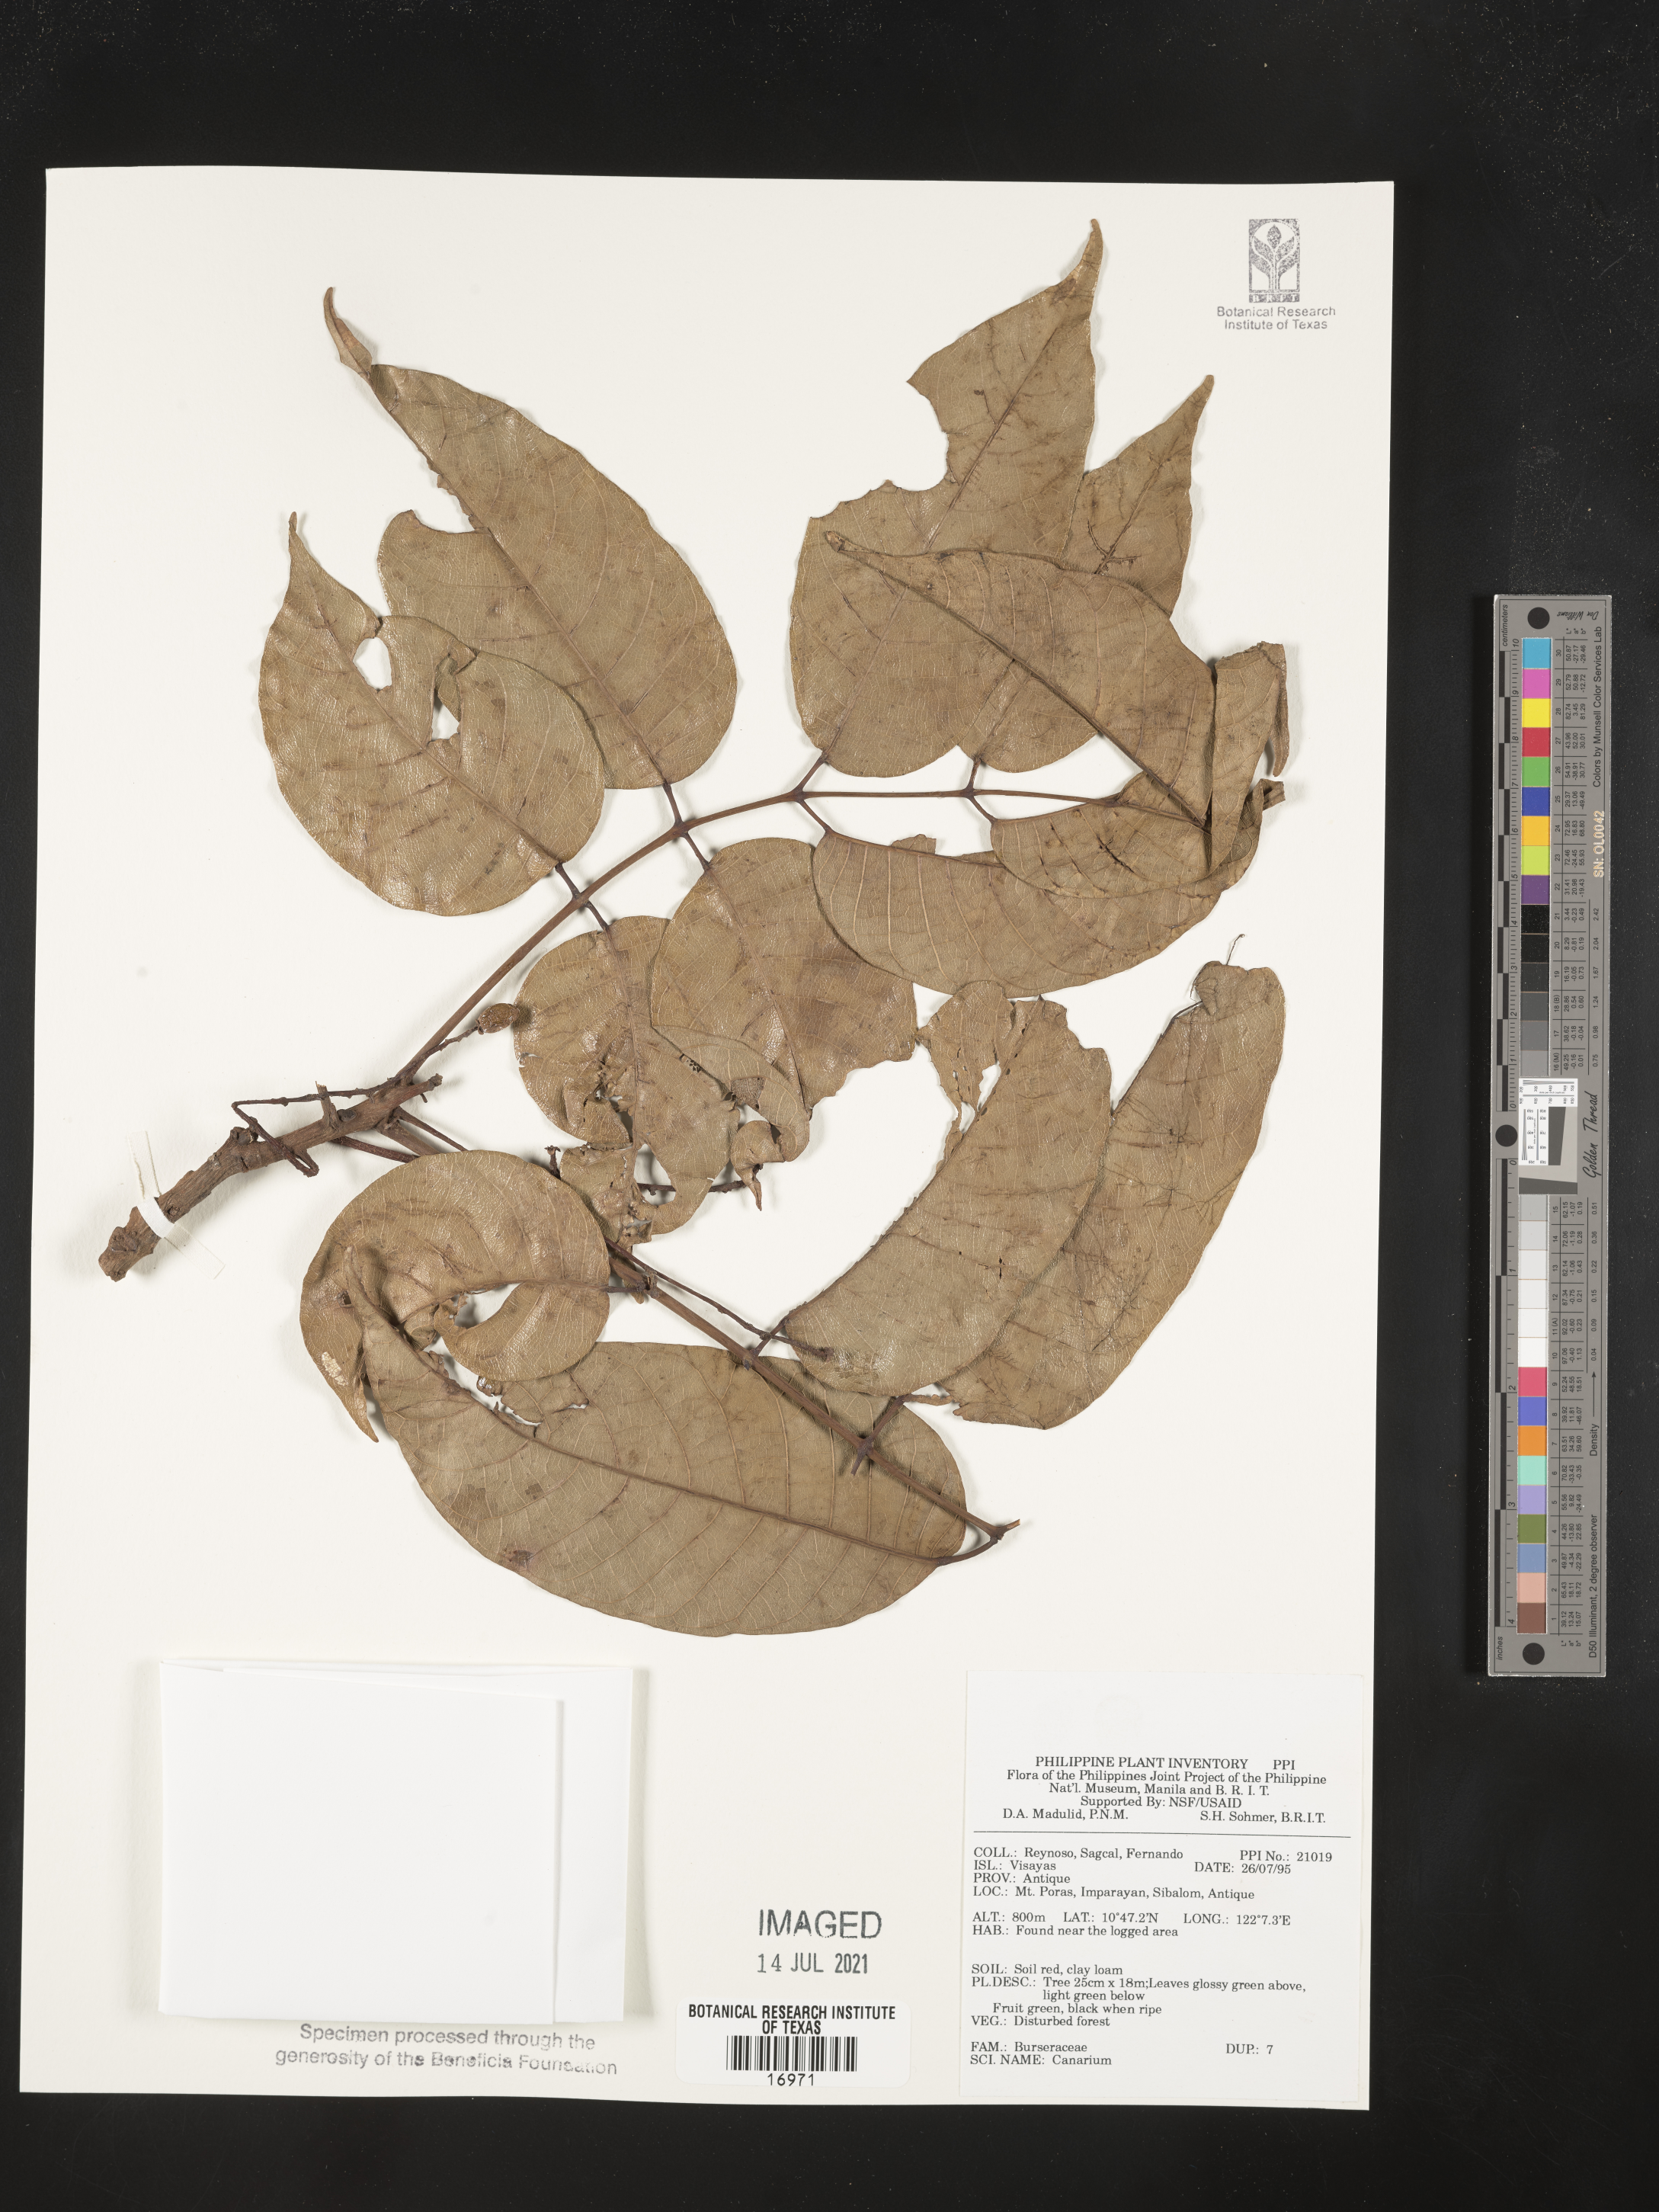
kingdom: Plantae
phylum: Tracheophyta
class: Magnoliopsida
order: Sapindales
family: Burseraceae
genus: Canarium
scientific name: Canarium
